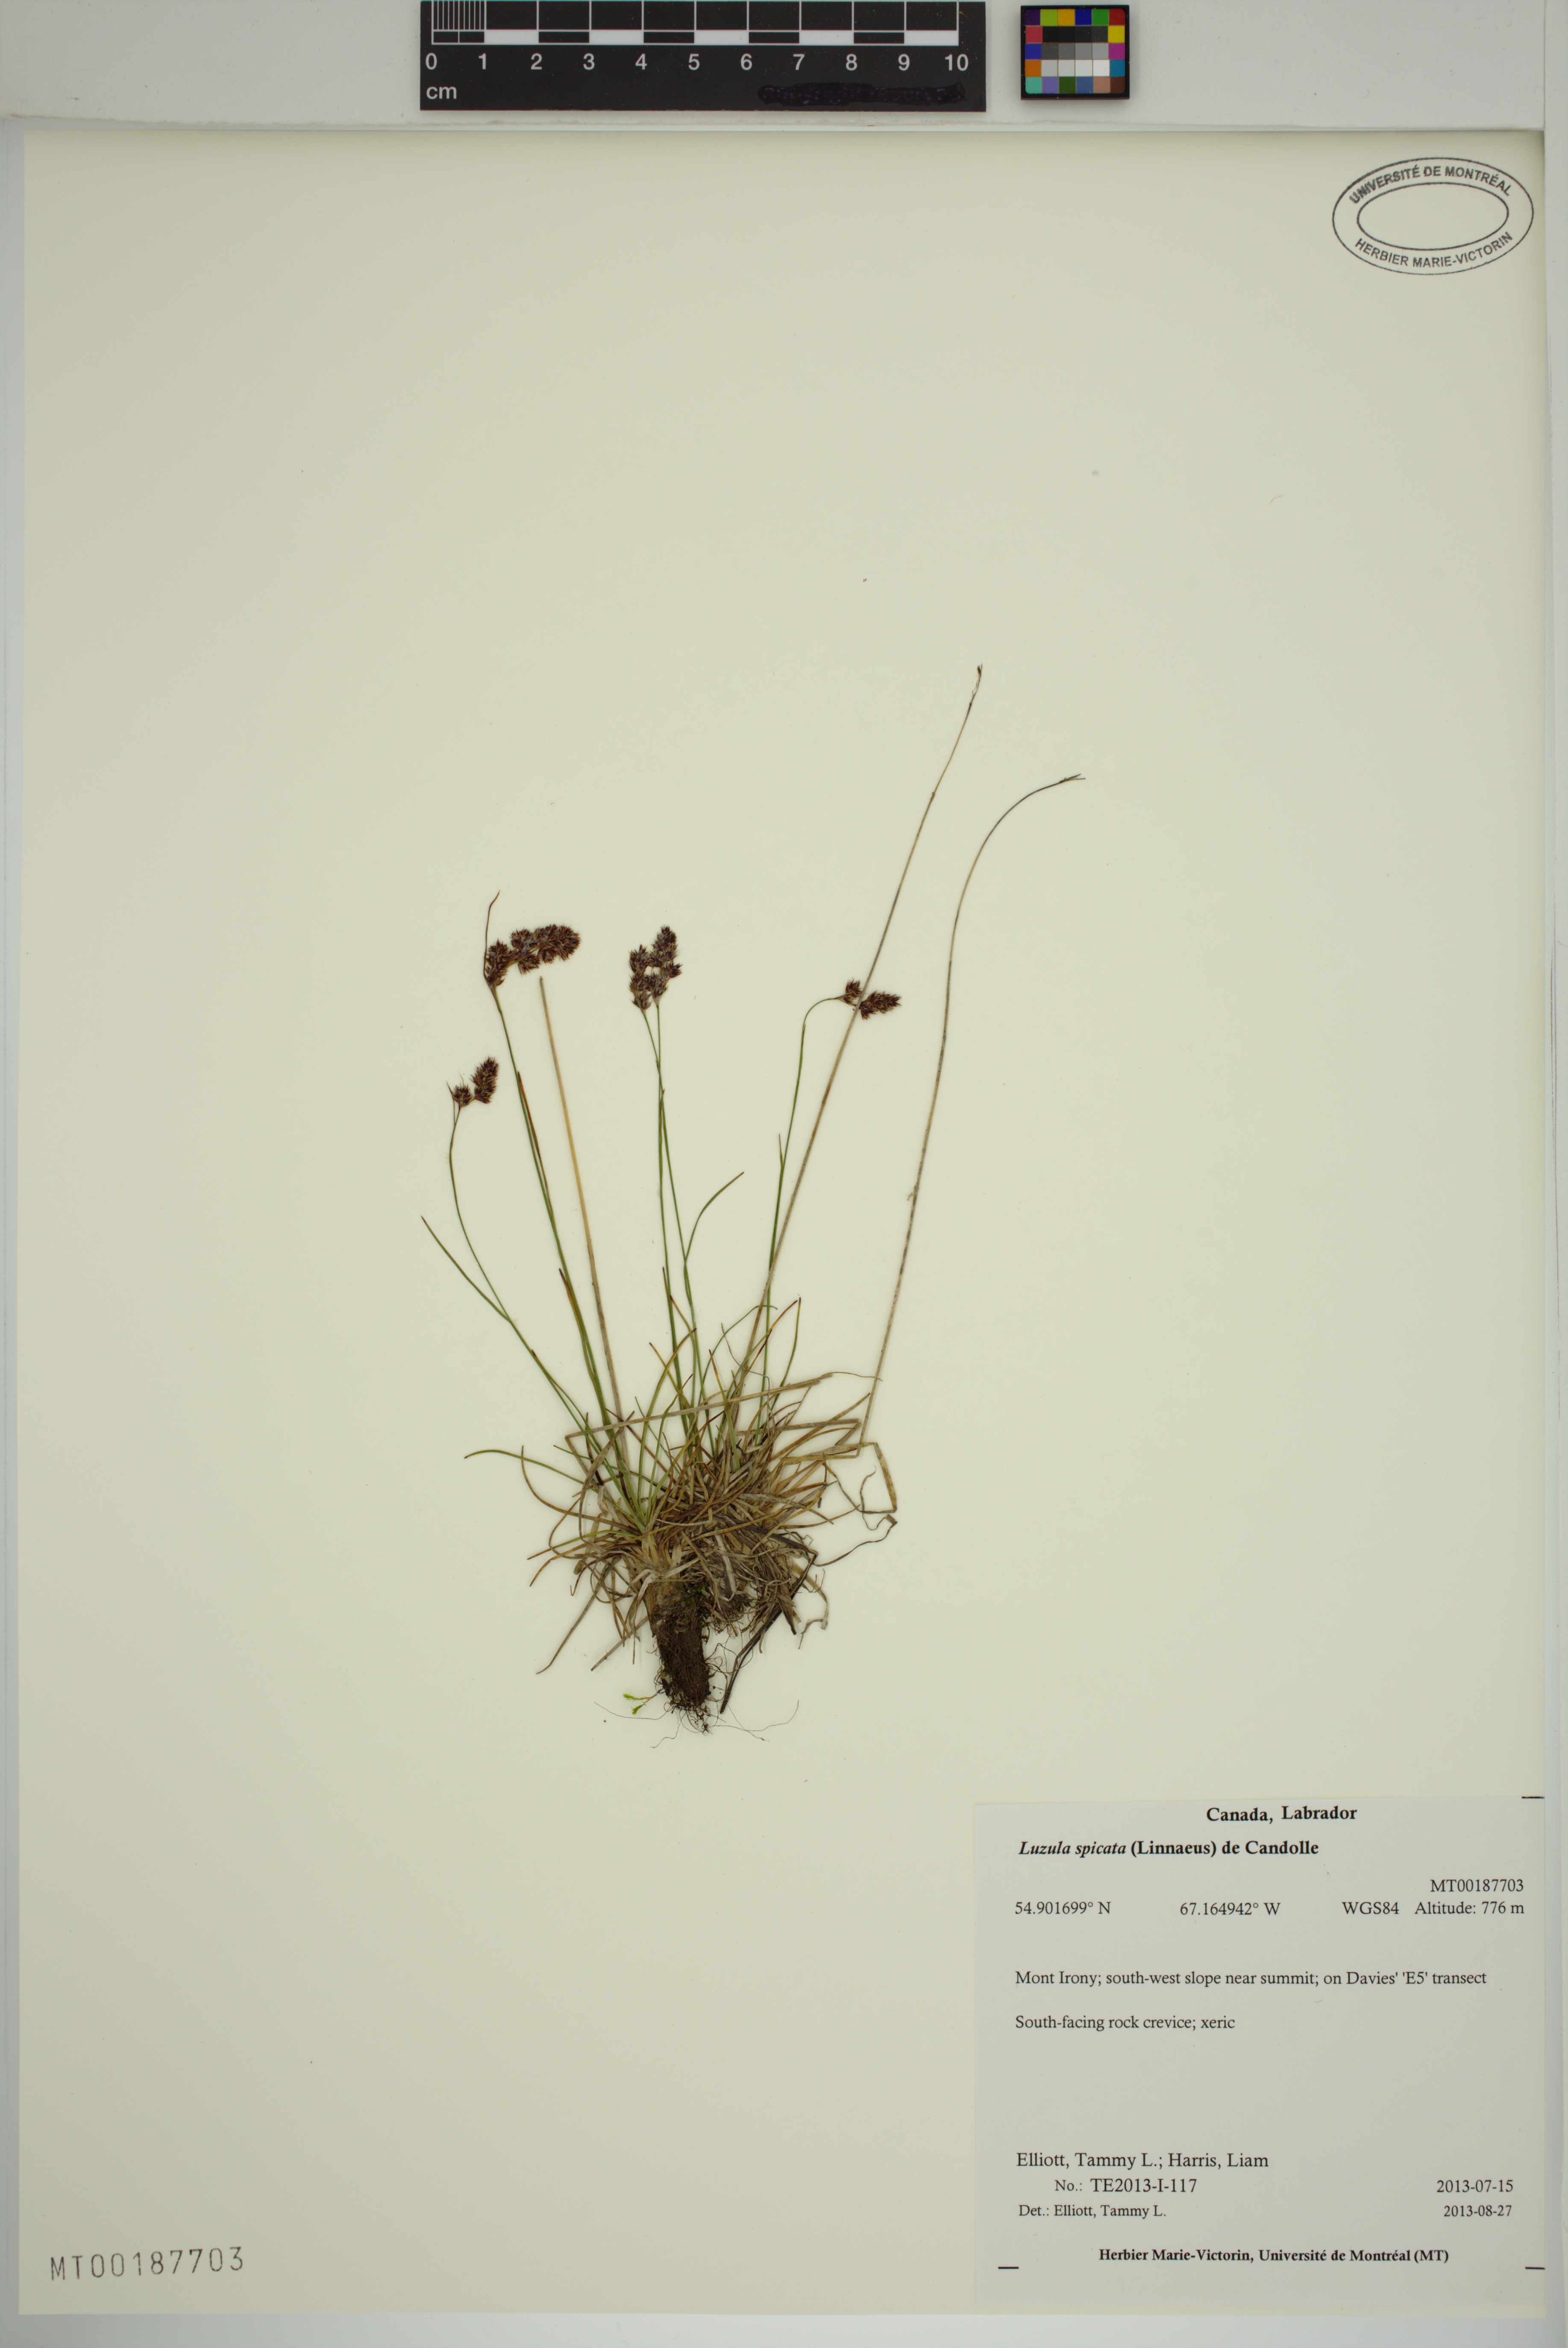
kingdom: Plantae
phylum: Tracheophyta
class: Liliopsida
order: Poales
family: Juncaceae
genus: Luzula
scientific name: Luzula spicata
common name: Spiked wood-rush
